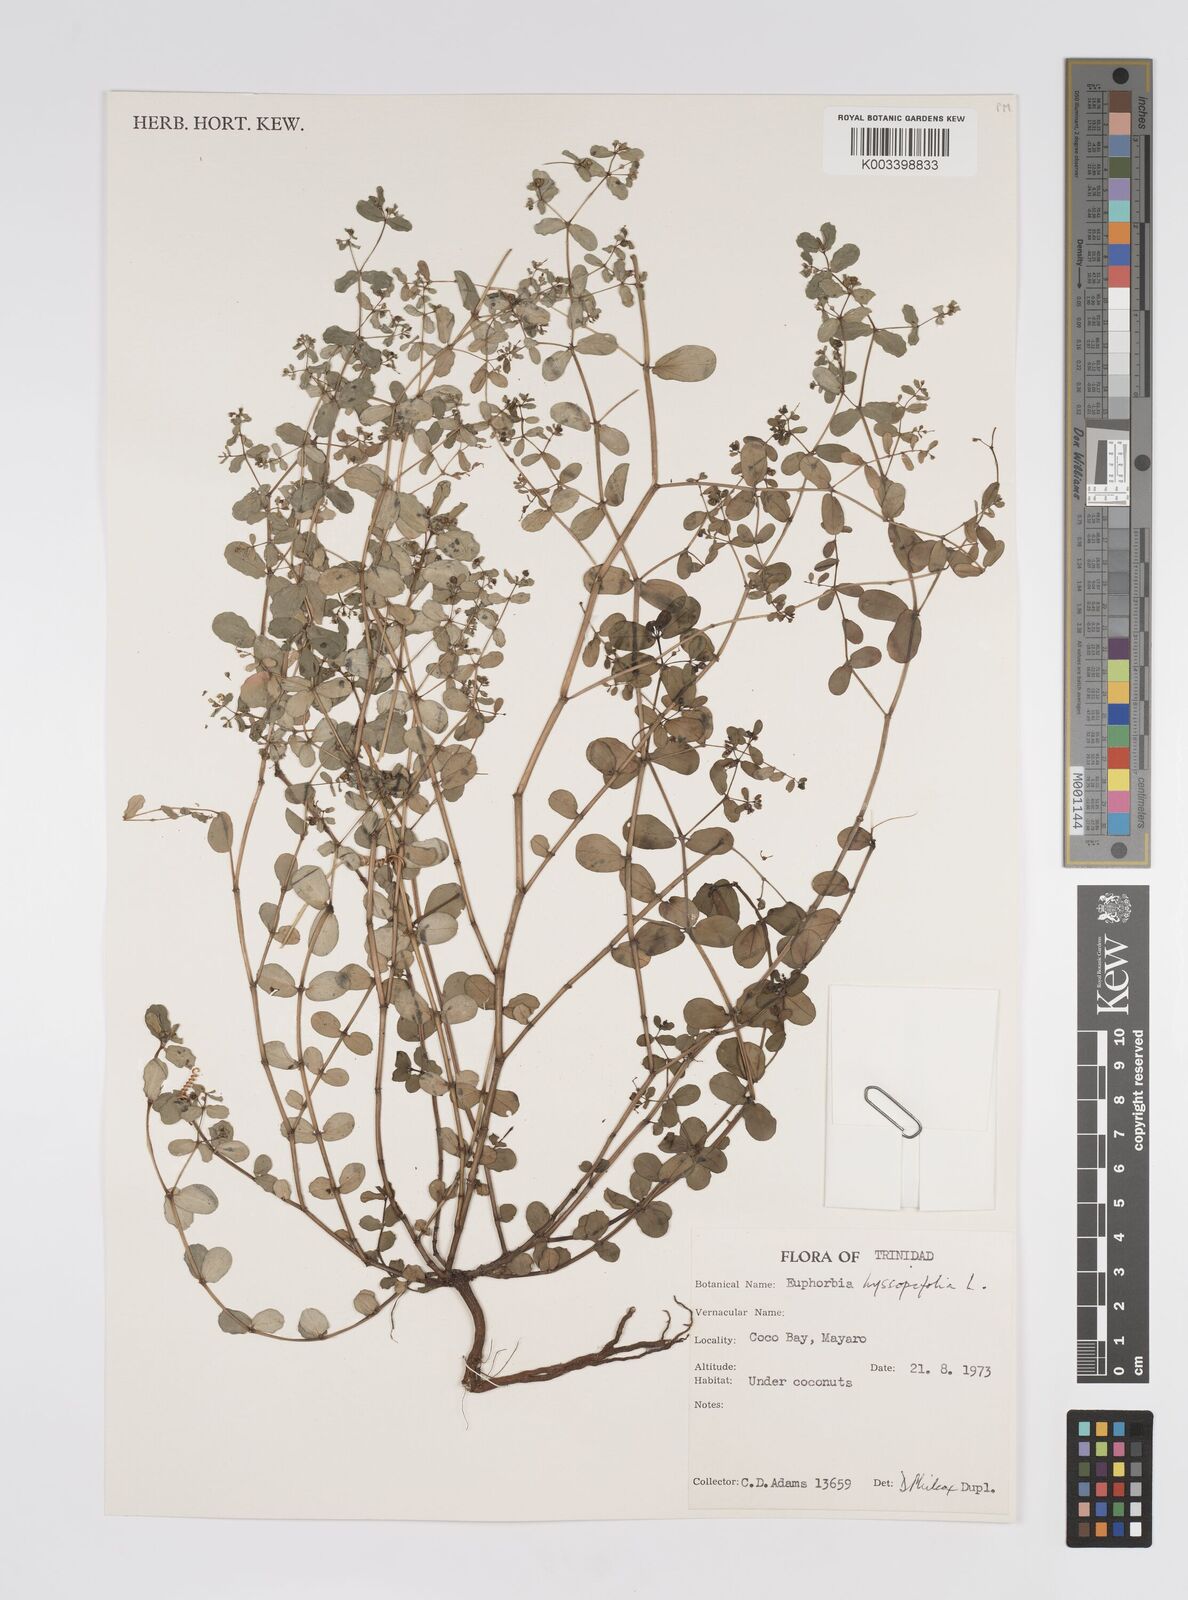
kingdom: Plantae
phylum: Tracheophyta
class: Magnoliopsida
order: Malpighiales
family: Euphorbiaceae
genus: Euphorbia
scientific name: Euphorbia hyssopifolia
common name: Hyssopleaf sandmat
